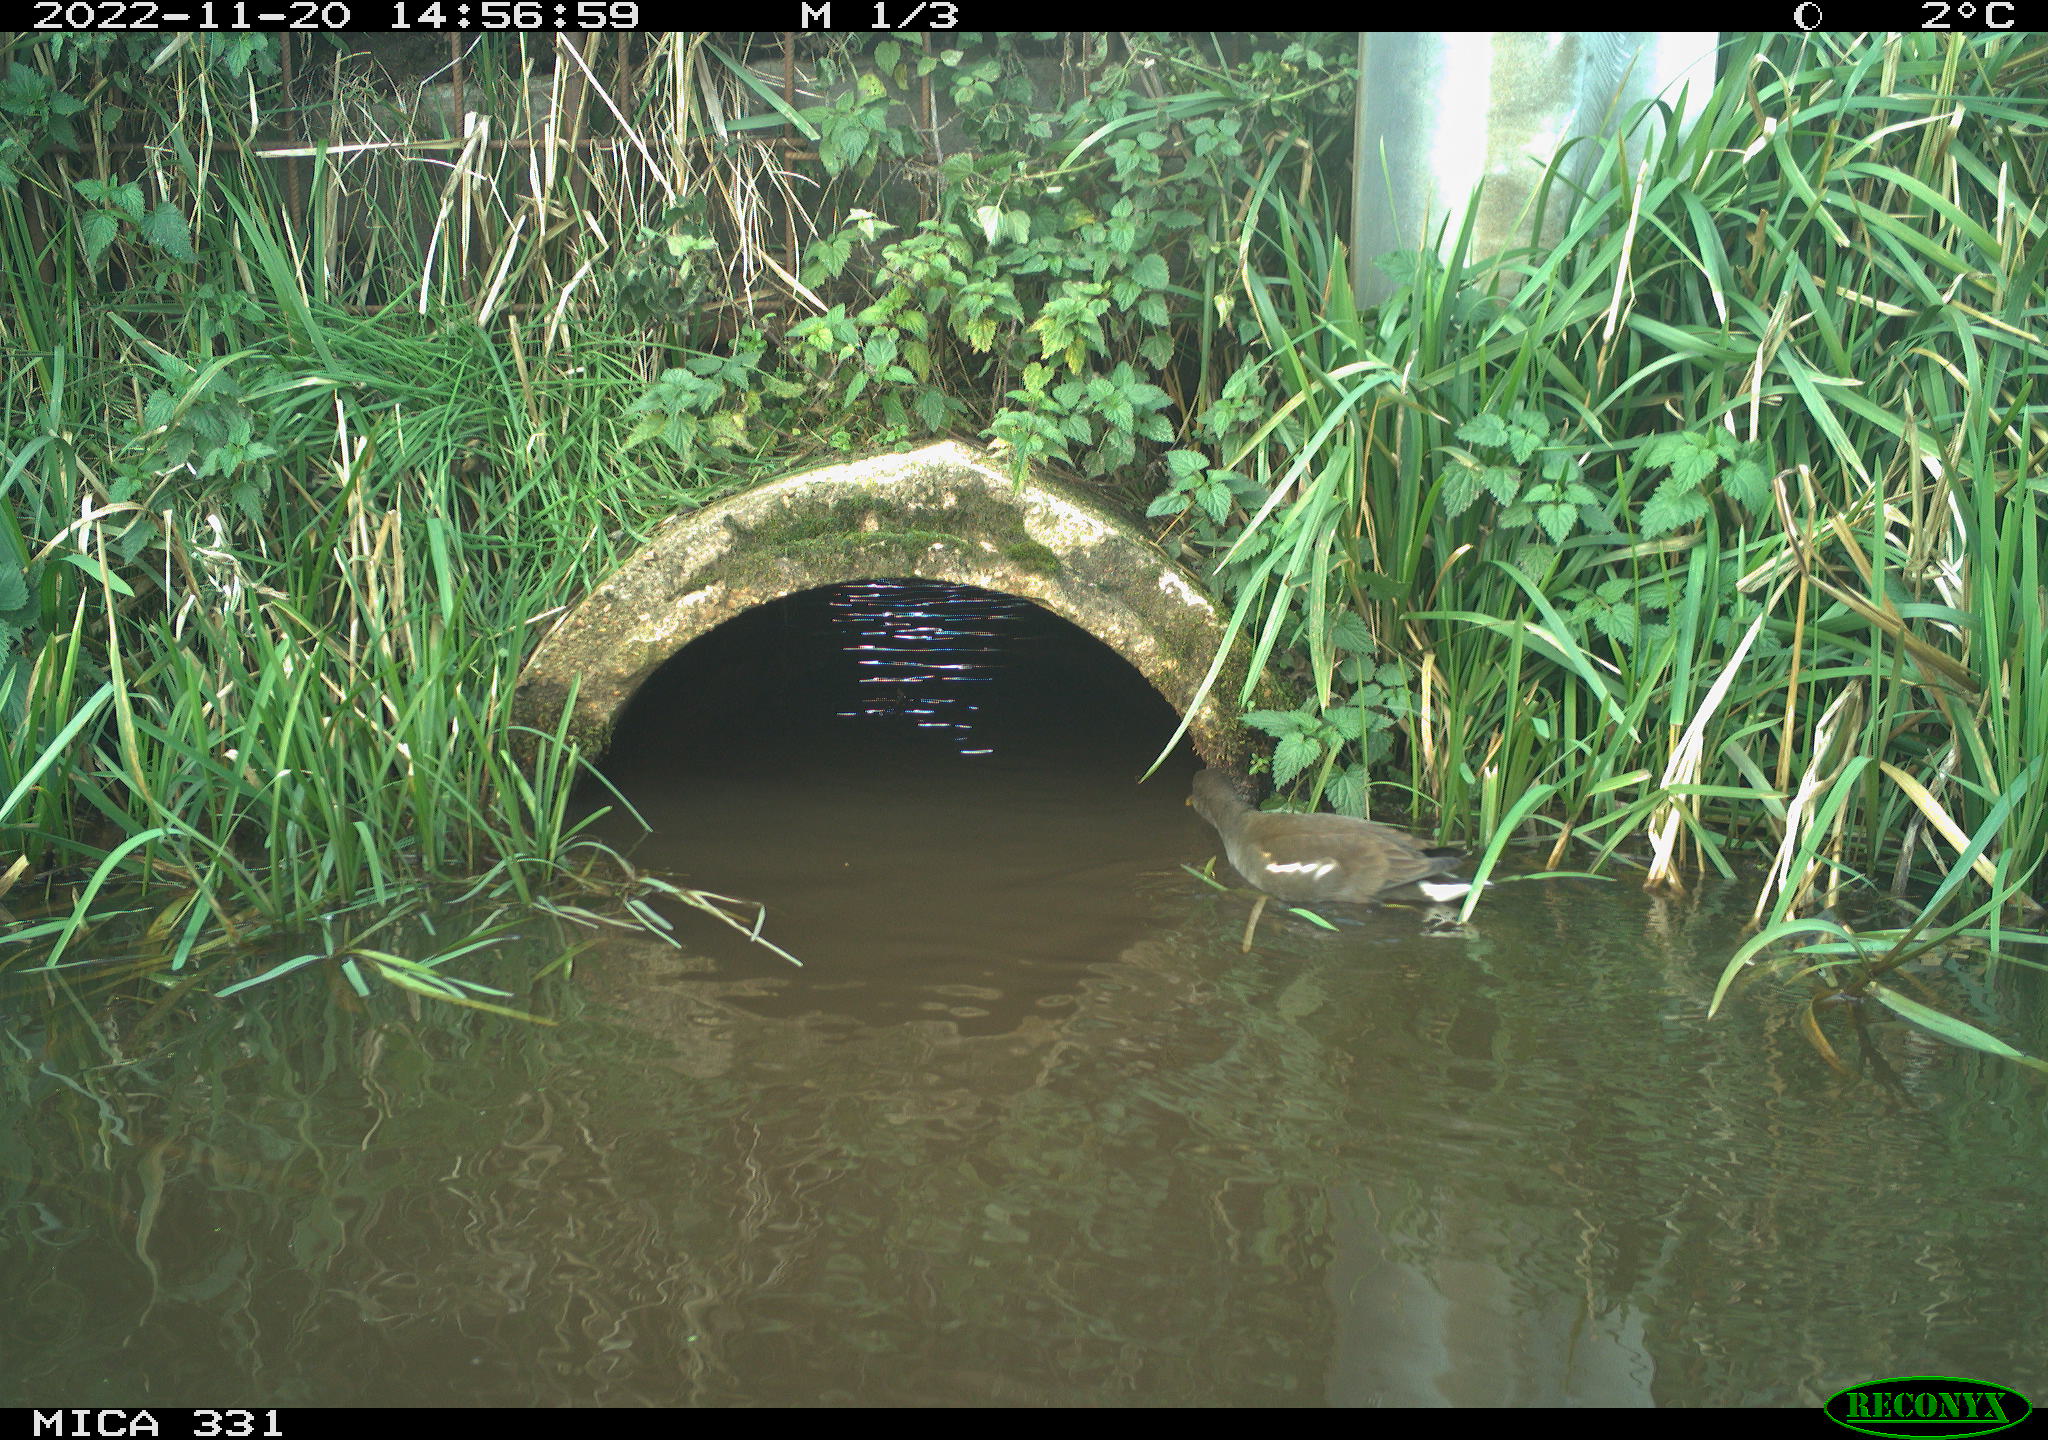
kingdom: Animalia
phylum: Chordata
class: Aves
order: Gruiformes
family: Rallidae
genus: Gallinula
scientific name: Gallinula chloropus
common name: Common moorhen
